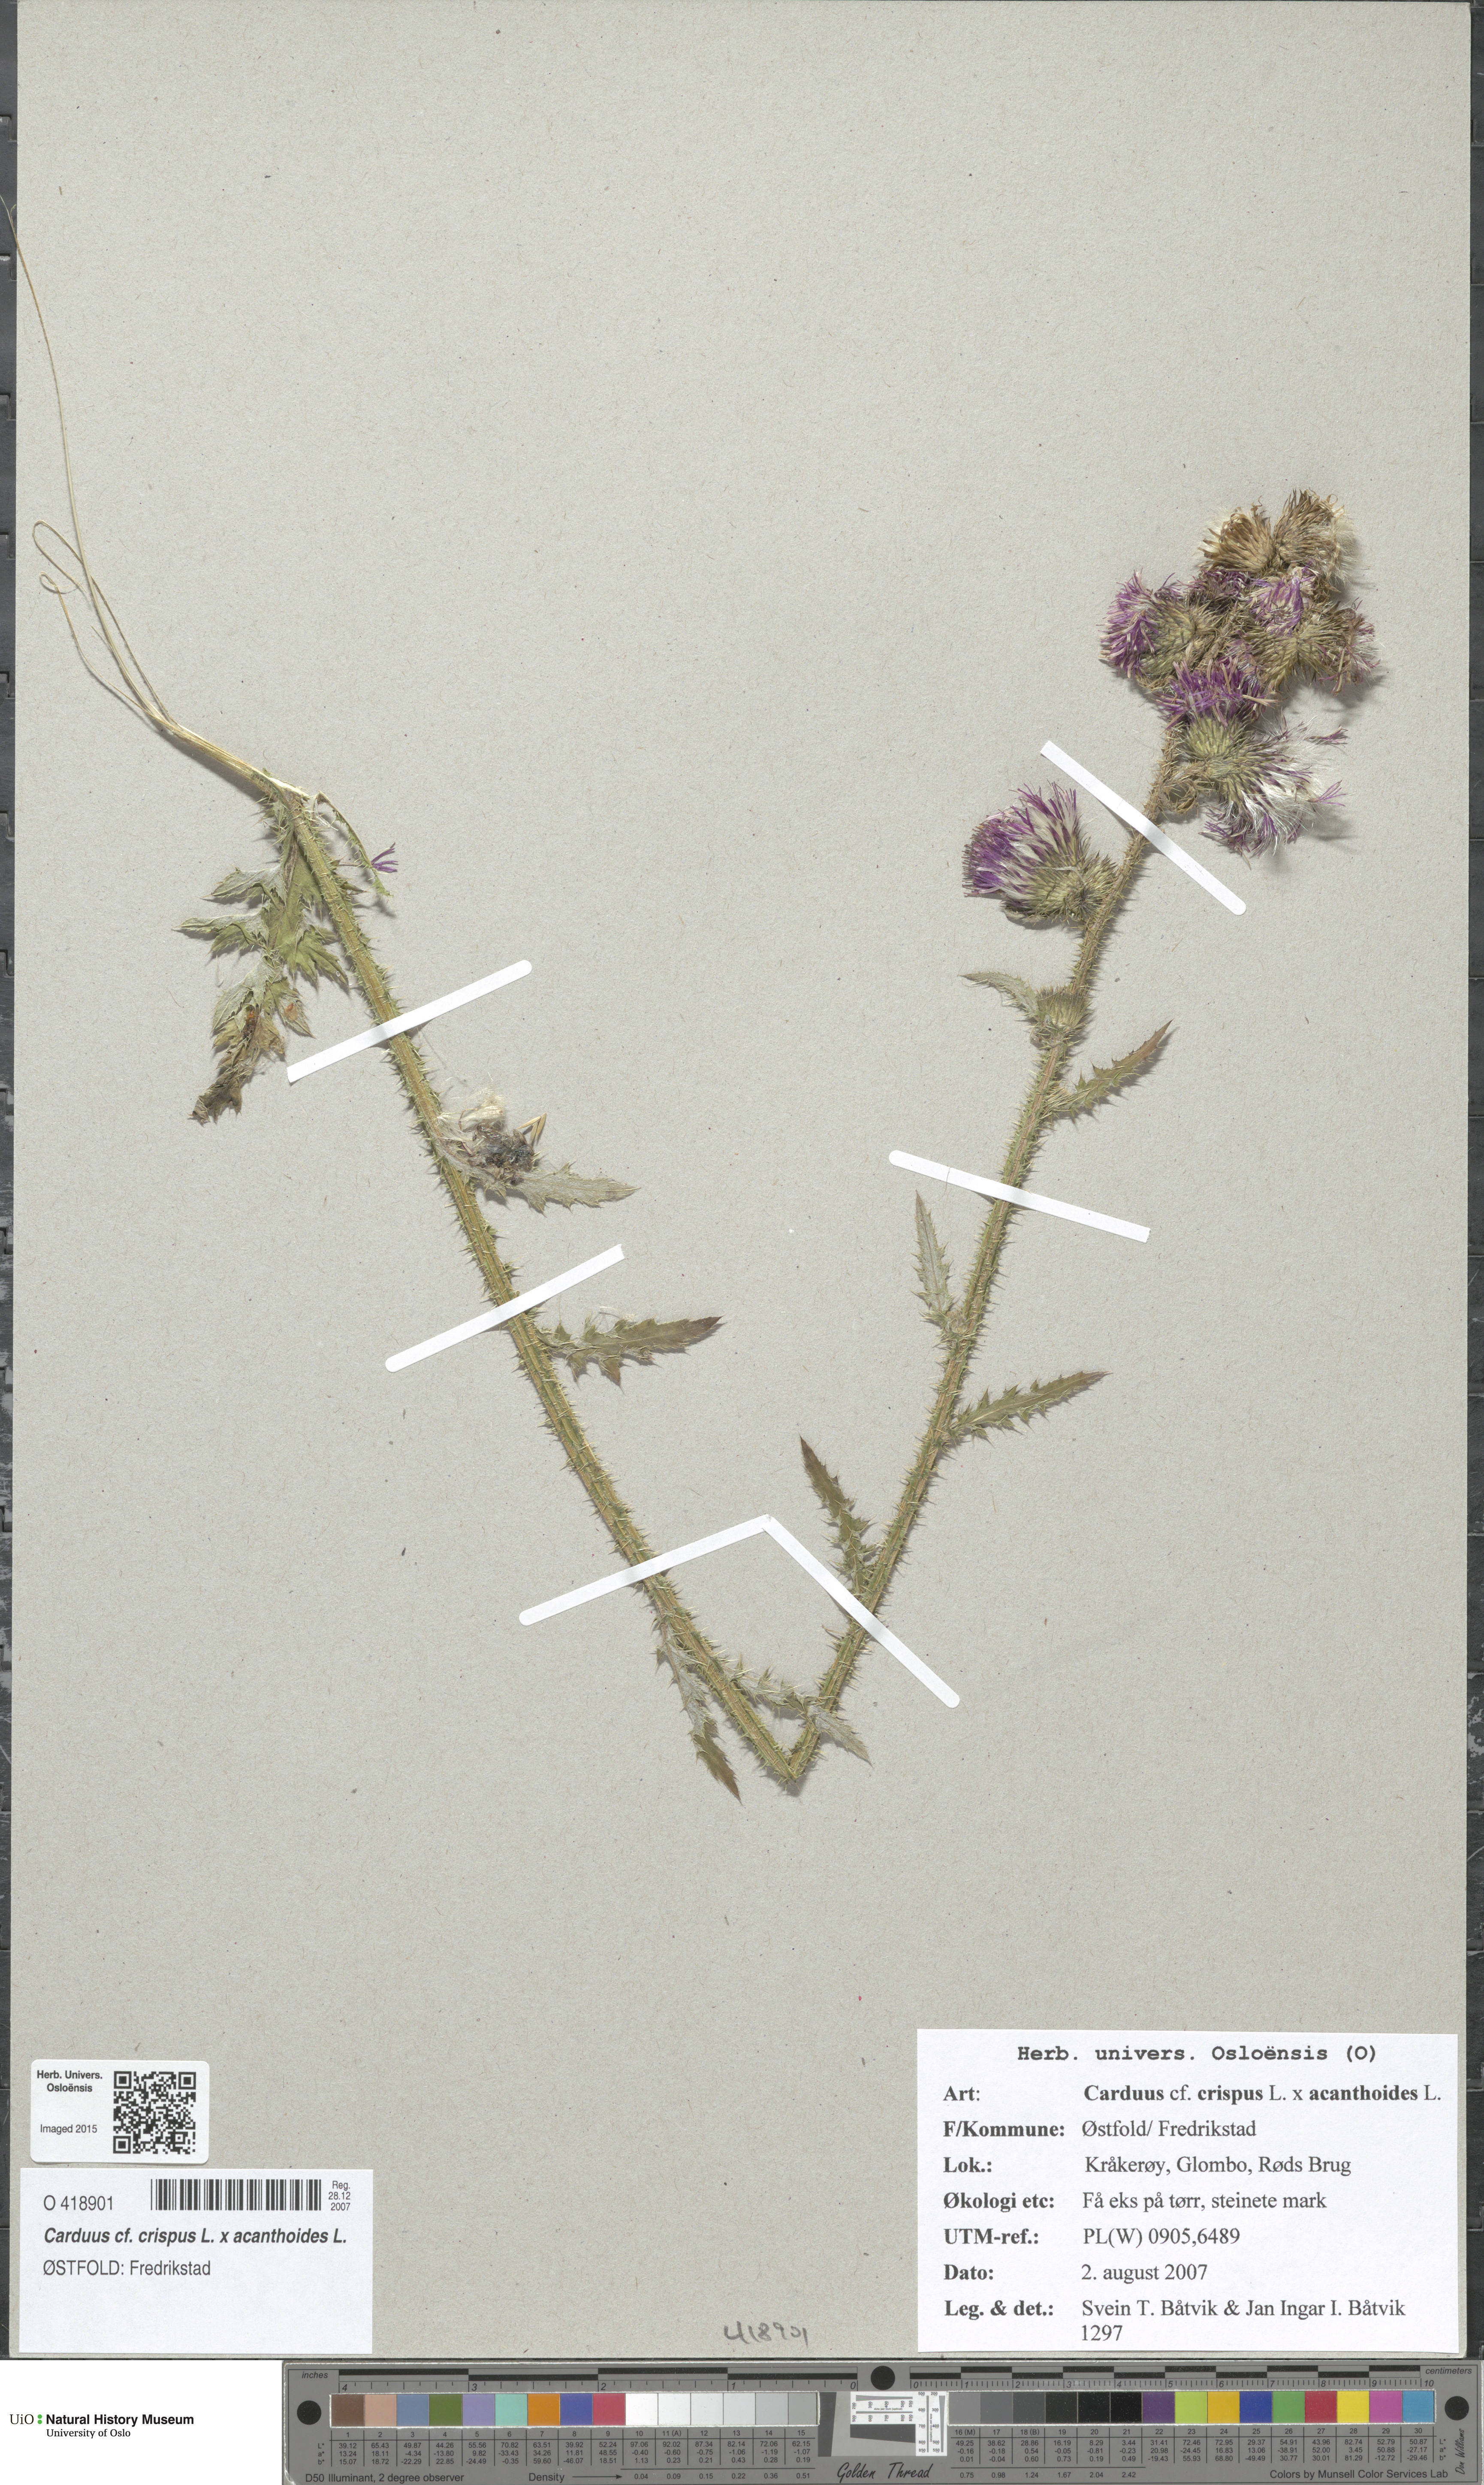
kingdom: Plantae
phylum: Tracheophyta
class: Magnoliopsida
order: Asterales
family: Asteraceae
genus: Carduus
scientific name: Carduus
